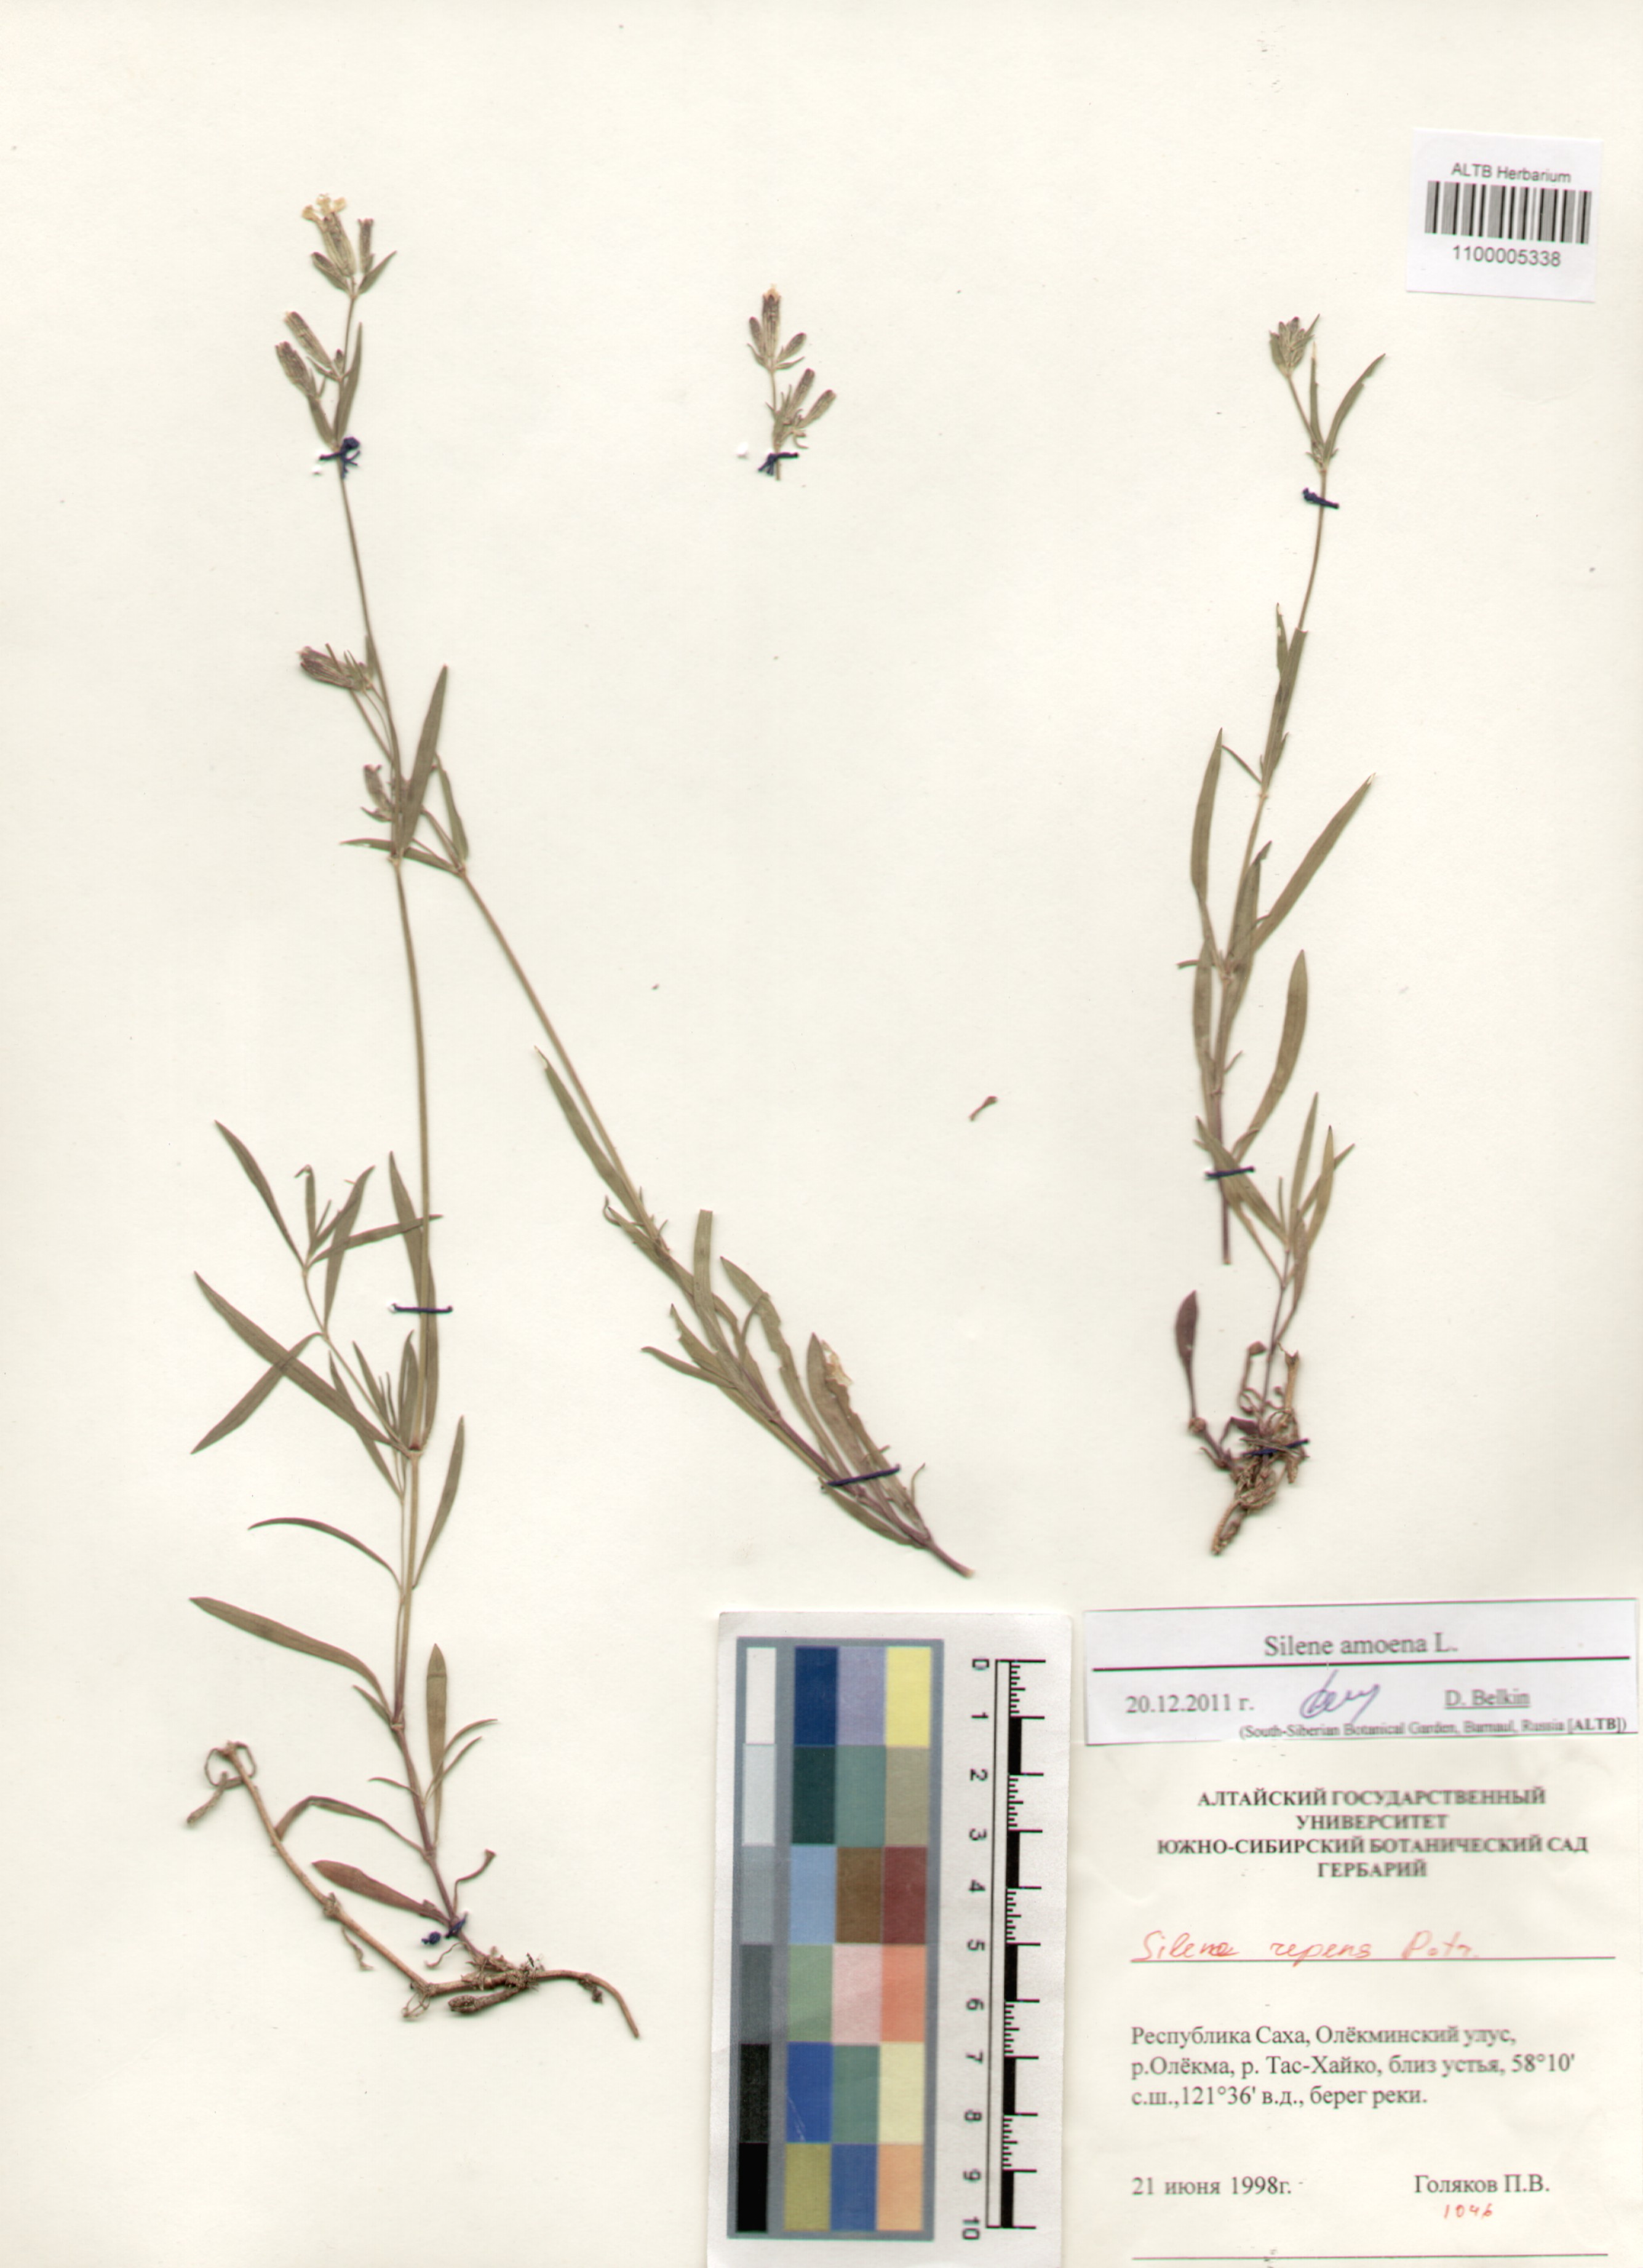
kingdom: Plantae
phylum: Tracheophyta
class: Magnoliopsida
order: Caryophyllales
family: Caryophyllaceae
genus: Silene
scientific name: Silene amoena
